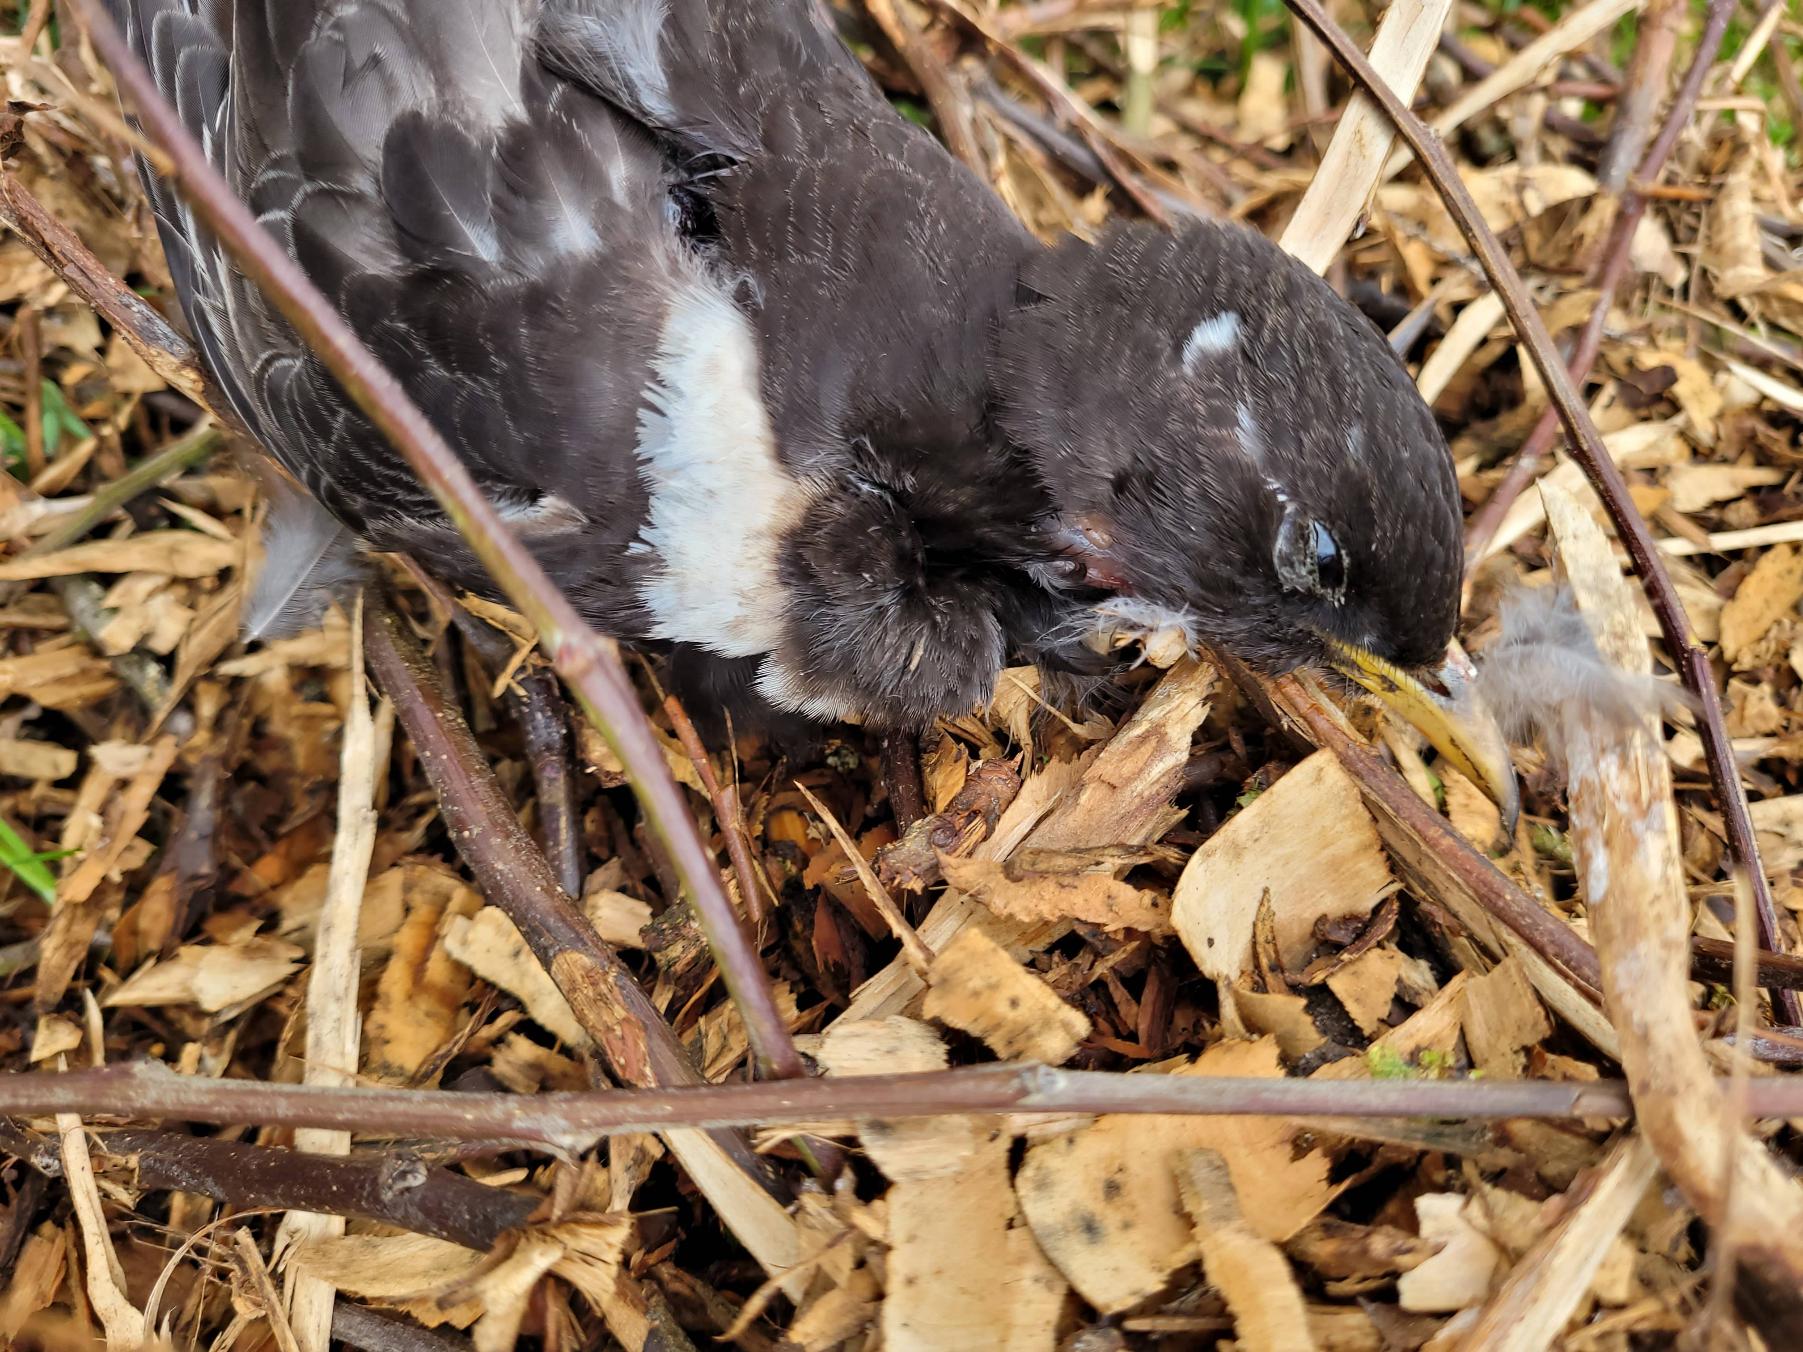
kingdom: Animalia
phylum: Chordata
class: Aves
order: Passeriformes
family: Turdidae
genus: Turdus
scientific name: Turdus torquatus
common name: Ringdrossel
